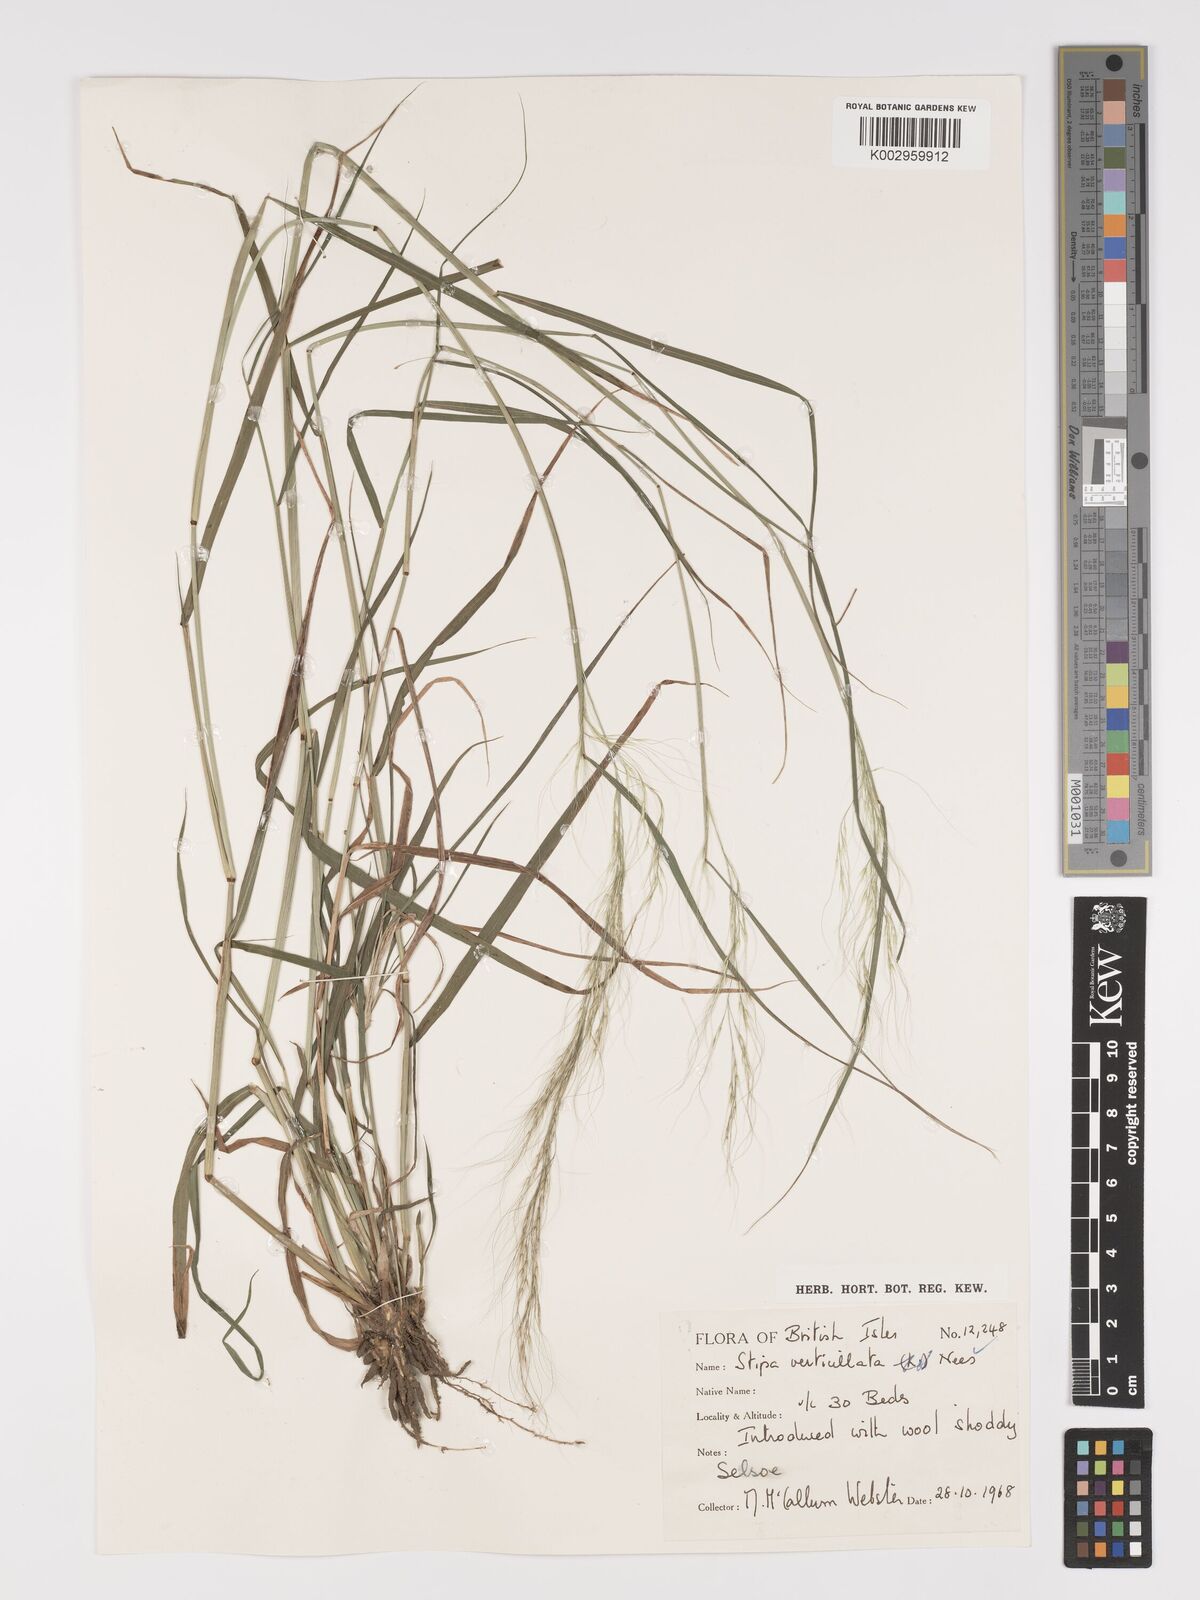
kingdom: Plantae
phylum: Tracheophyta
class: Liliopsida
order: Poales
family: Poaceae
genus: Austrostipa
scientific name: Austrostipa verticillata
